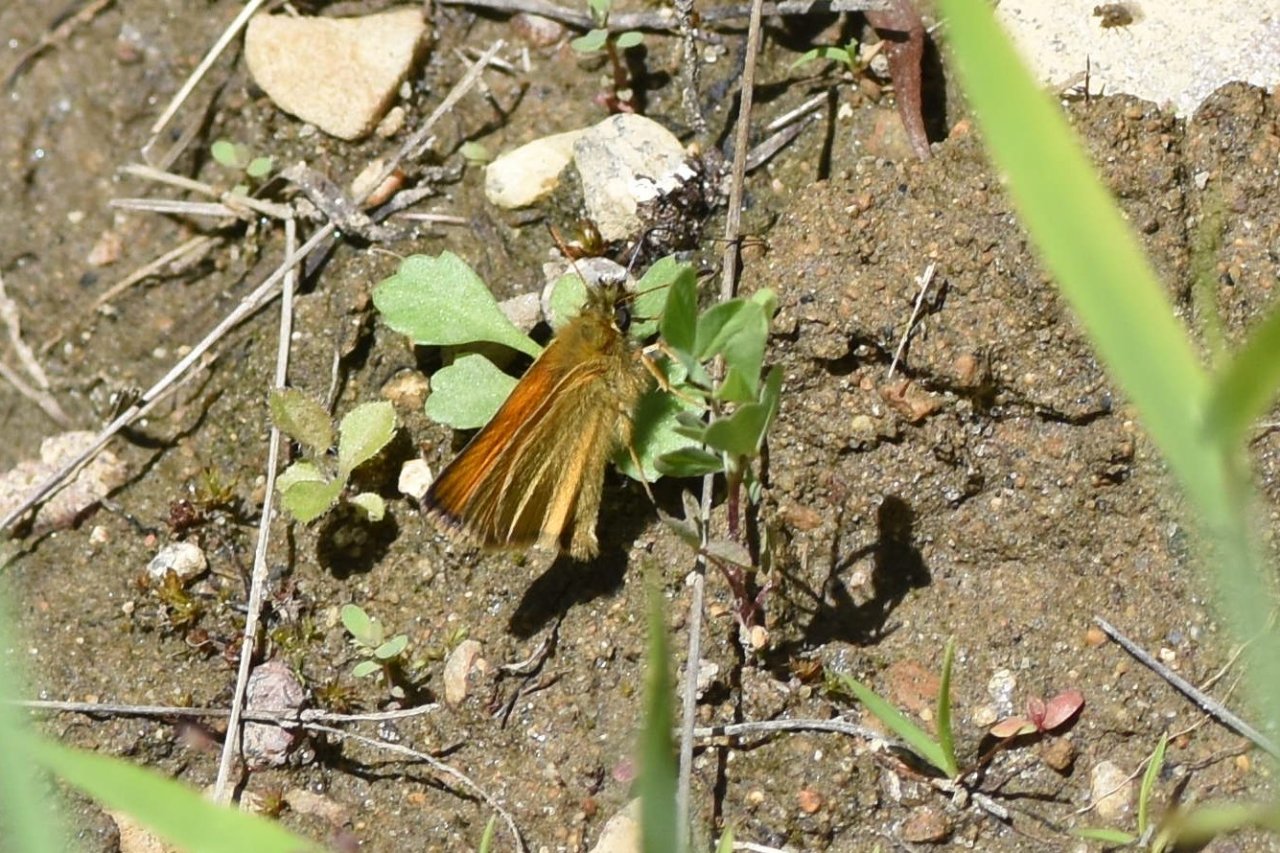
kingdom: Animalia
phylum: Arthropoda
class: Insecta
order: Lepidoptera
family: Hesperiidae
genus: Thymelicus
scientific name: Thymelicus lineola
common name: European Skipper
